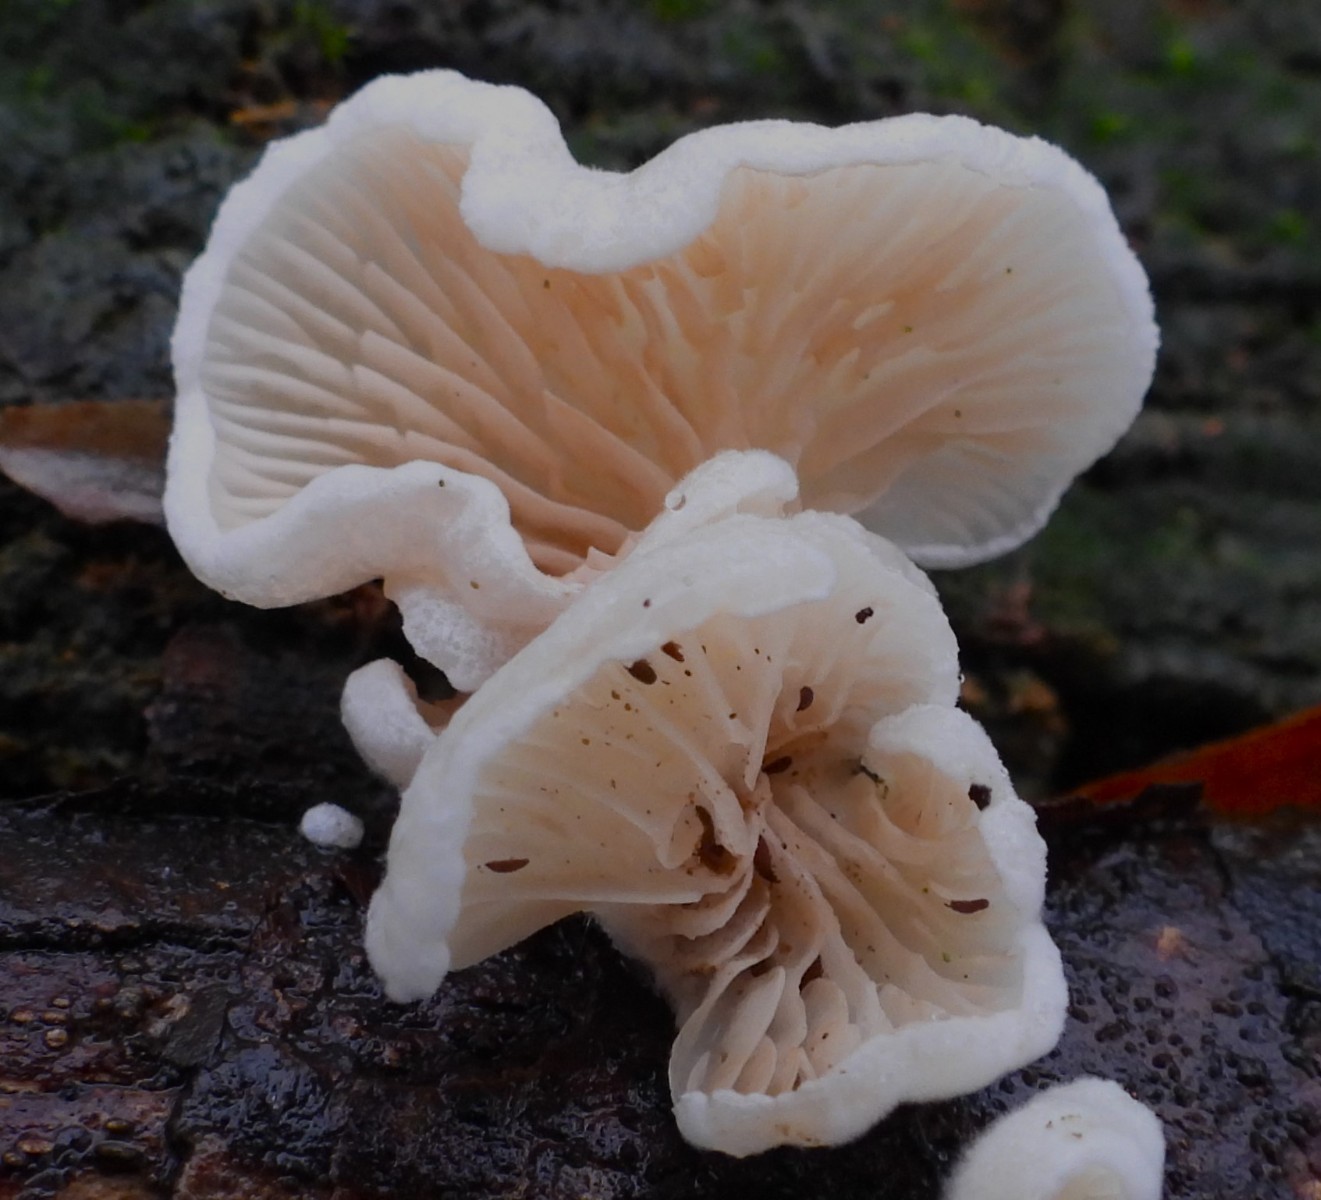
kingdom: Fungi
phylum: Basidiomycota
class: Agaricomycetes
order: Agaricales
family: Crepidotaceae
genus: Crepidotus
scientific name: Crepidotus
